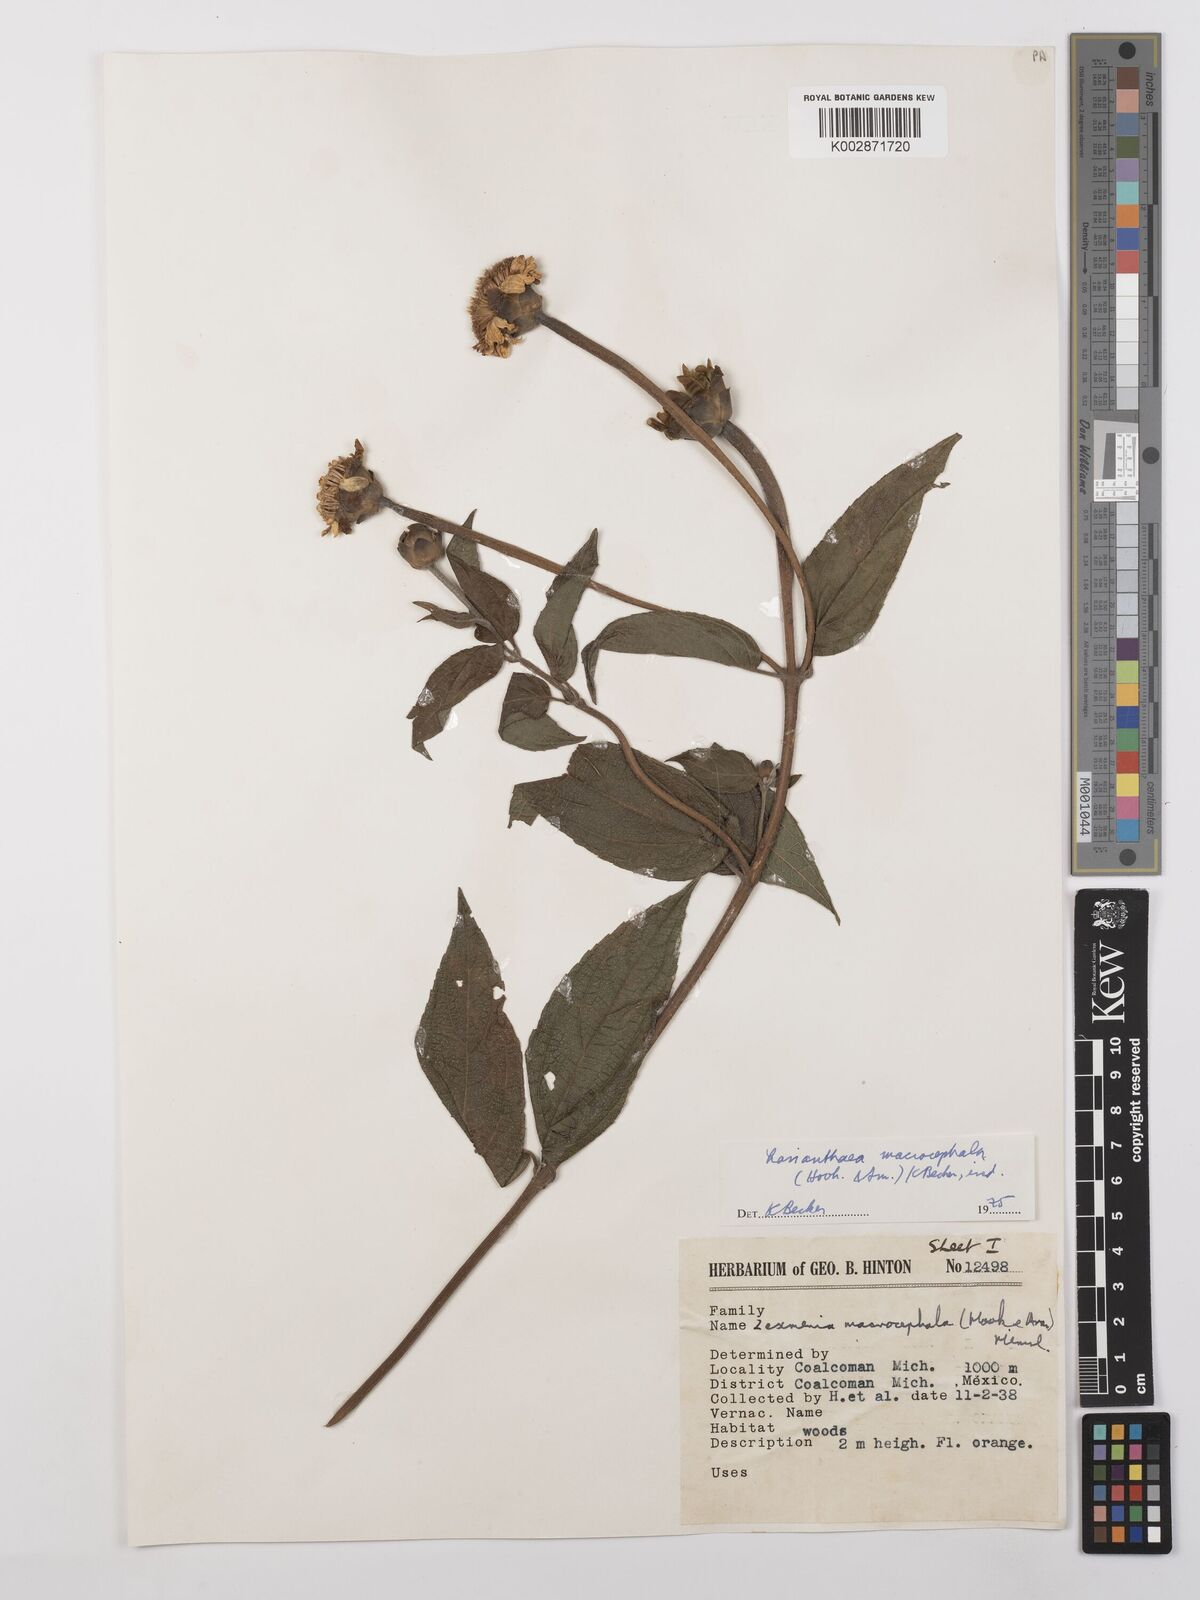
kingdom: Plantae
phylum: Tracheophyta
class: Magnoliopsida
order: Asterales
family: Asteraceae
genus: Lasianthaea
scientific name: Lasianthaea macrocephala
